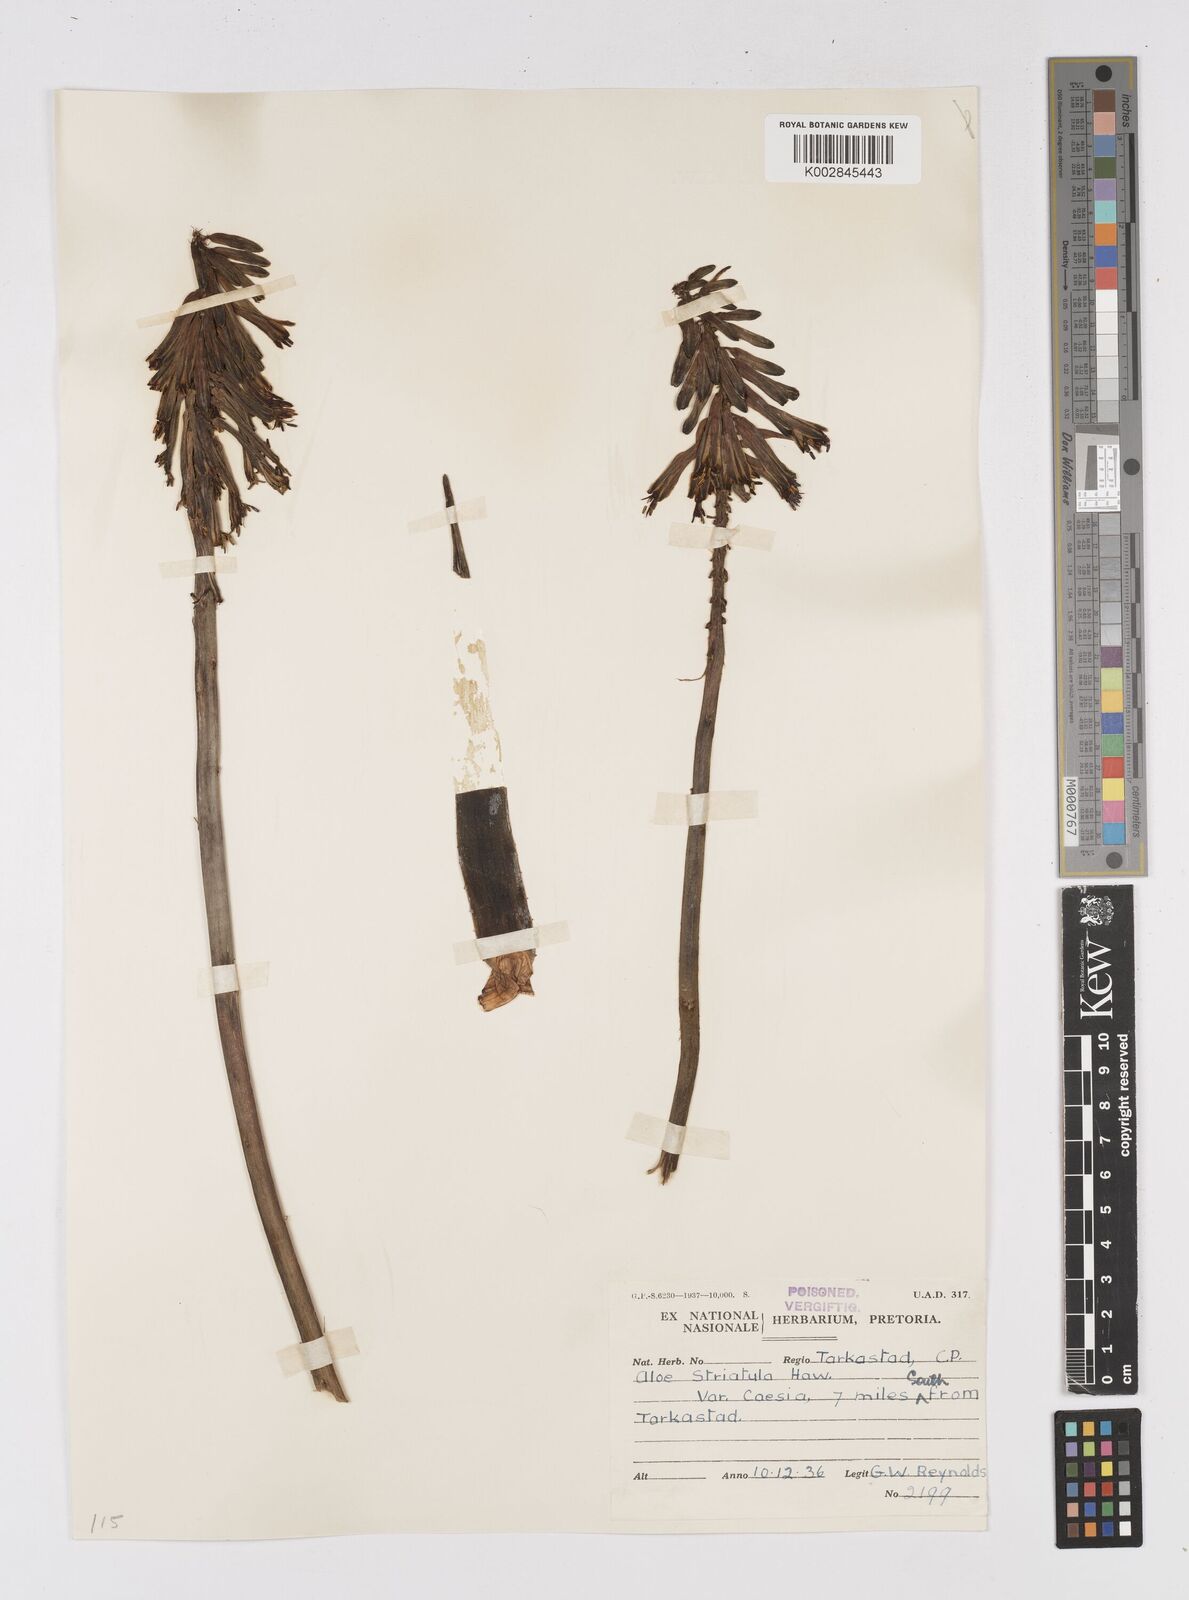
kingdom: Plantae
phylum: Tracheophyta
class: Liliopsida
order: Asparagales
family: Asphodelaceae
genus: Aloiampelos
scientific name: Aloiampelos striatula
